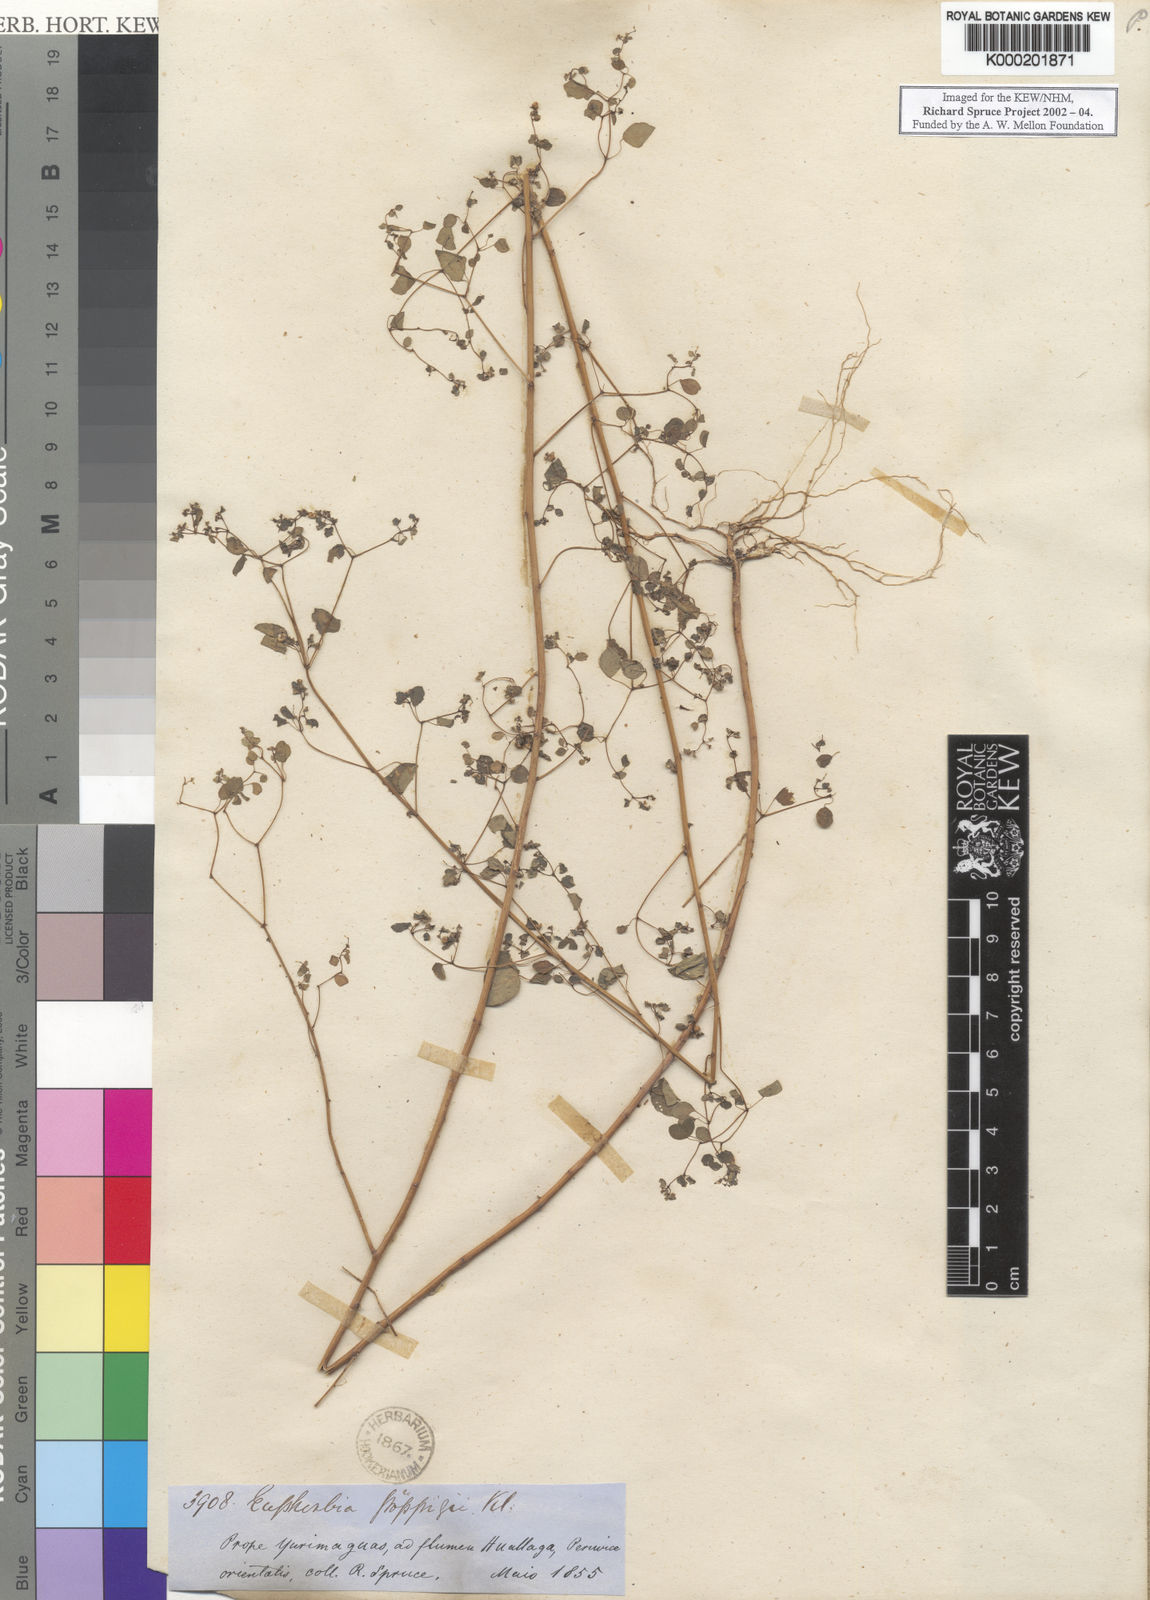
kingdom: Plantae
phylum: Tracheophyta
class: Magnoliopsida
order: Malpighiales
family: Euphorbiaceae
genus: Euphorbia
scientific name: Euphorbia
